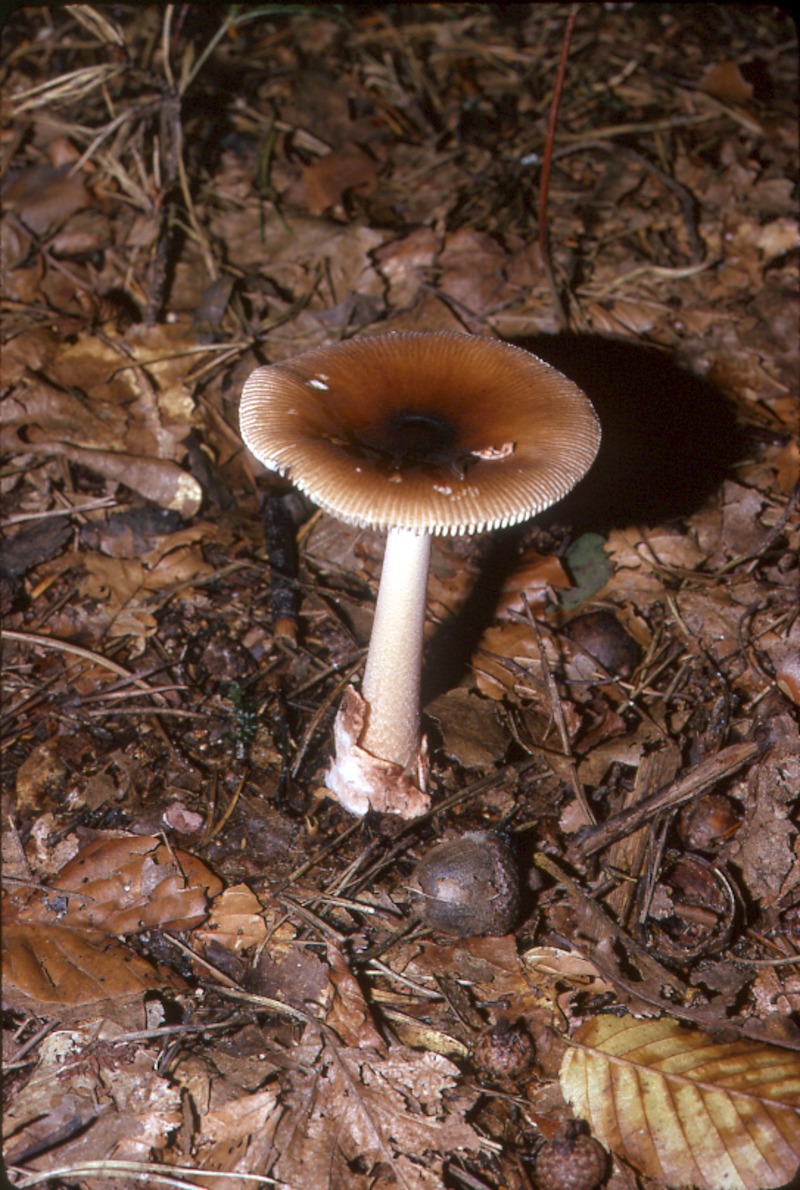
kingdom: Fungi
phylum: Basidiomycota
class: Agaricomycetes
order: Agaricales
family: Amanitaceae
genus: Amanita
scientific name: Amanita fulva
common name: Tawny grisette
